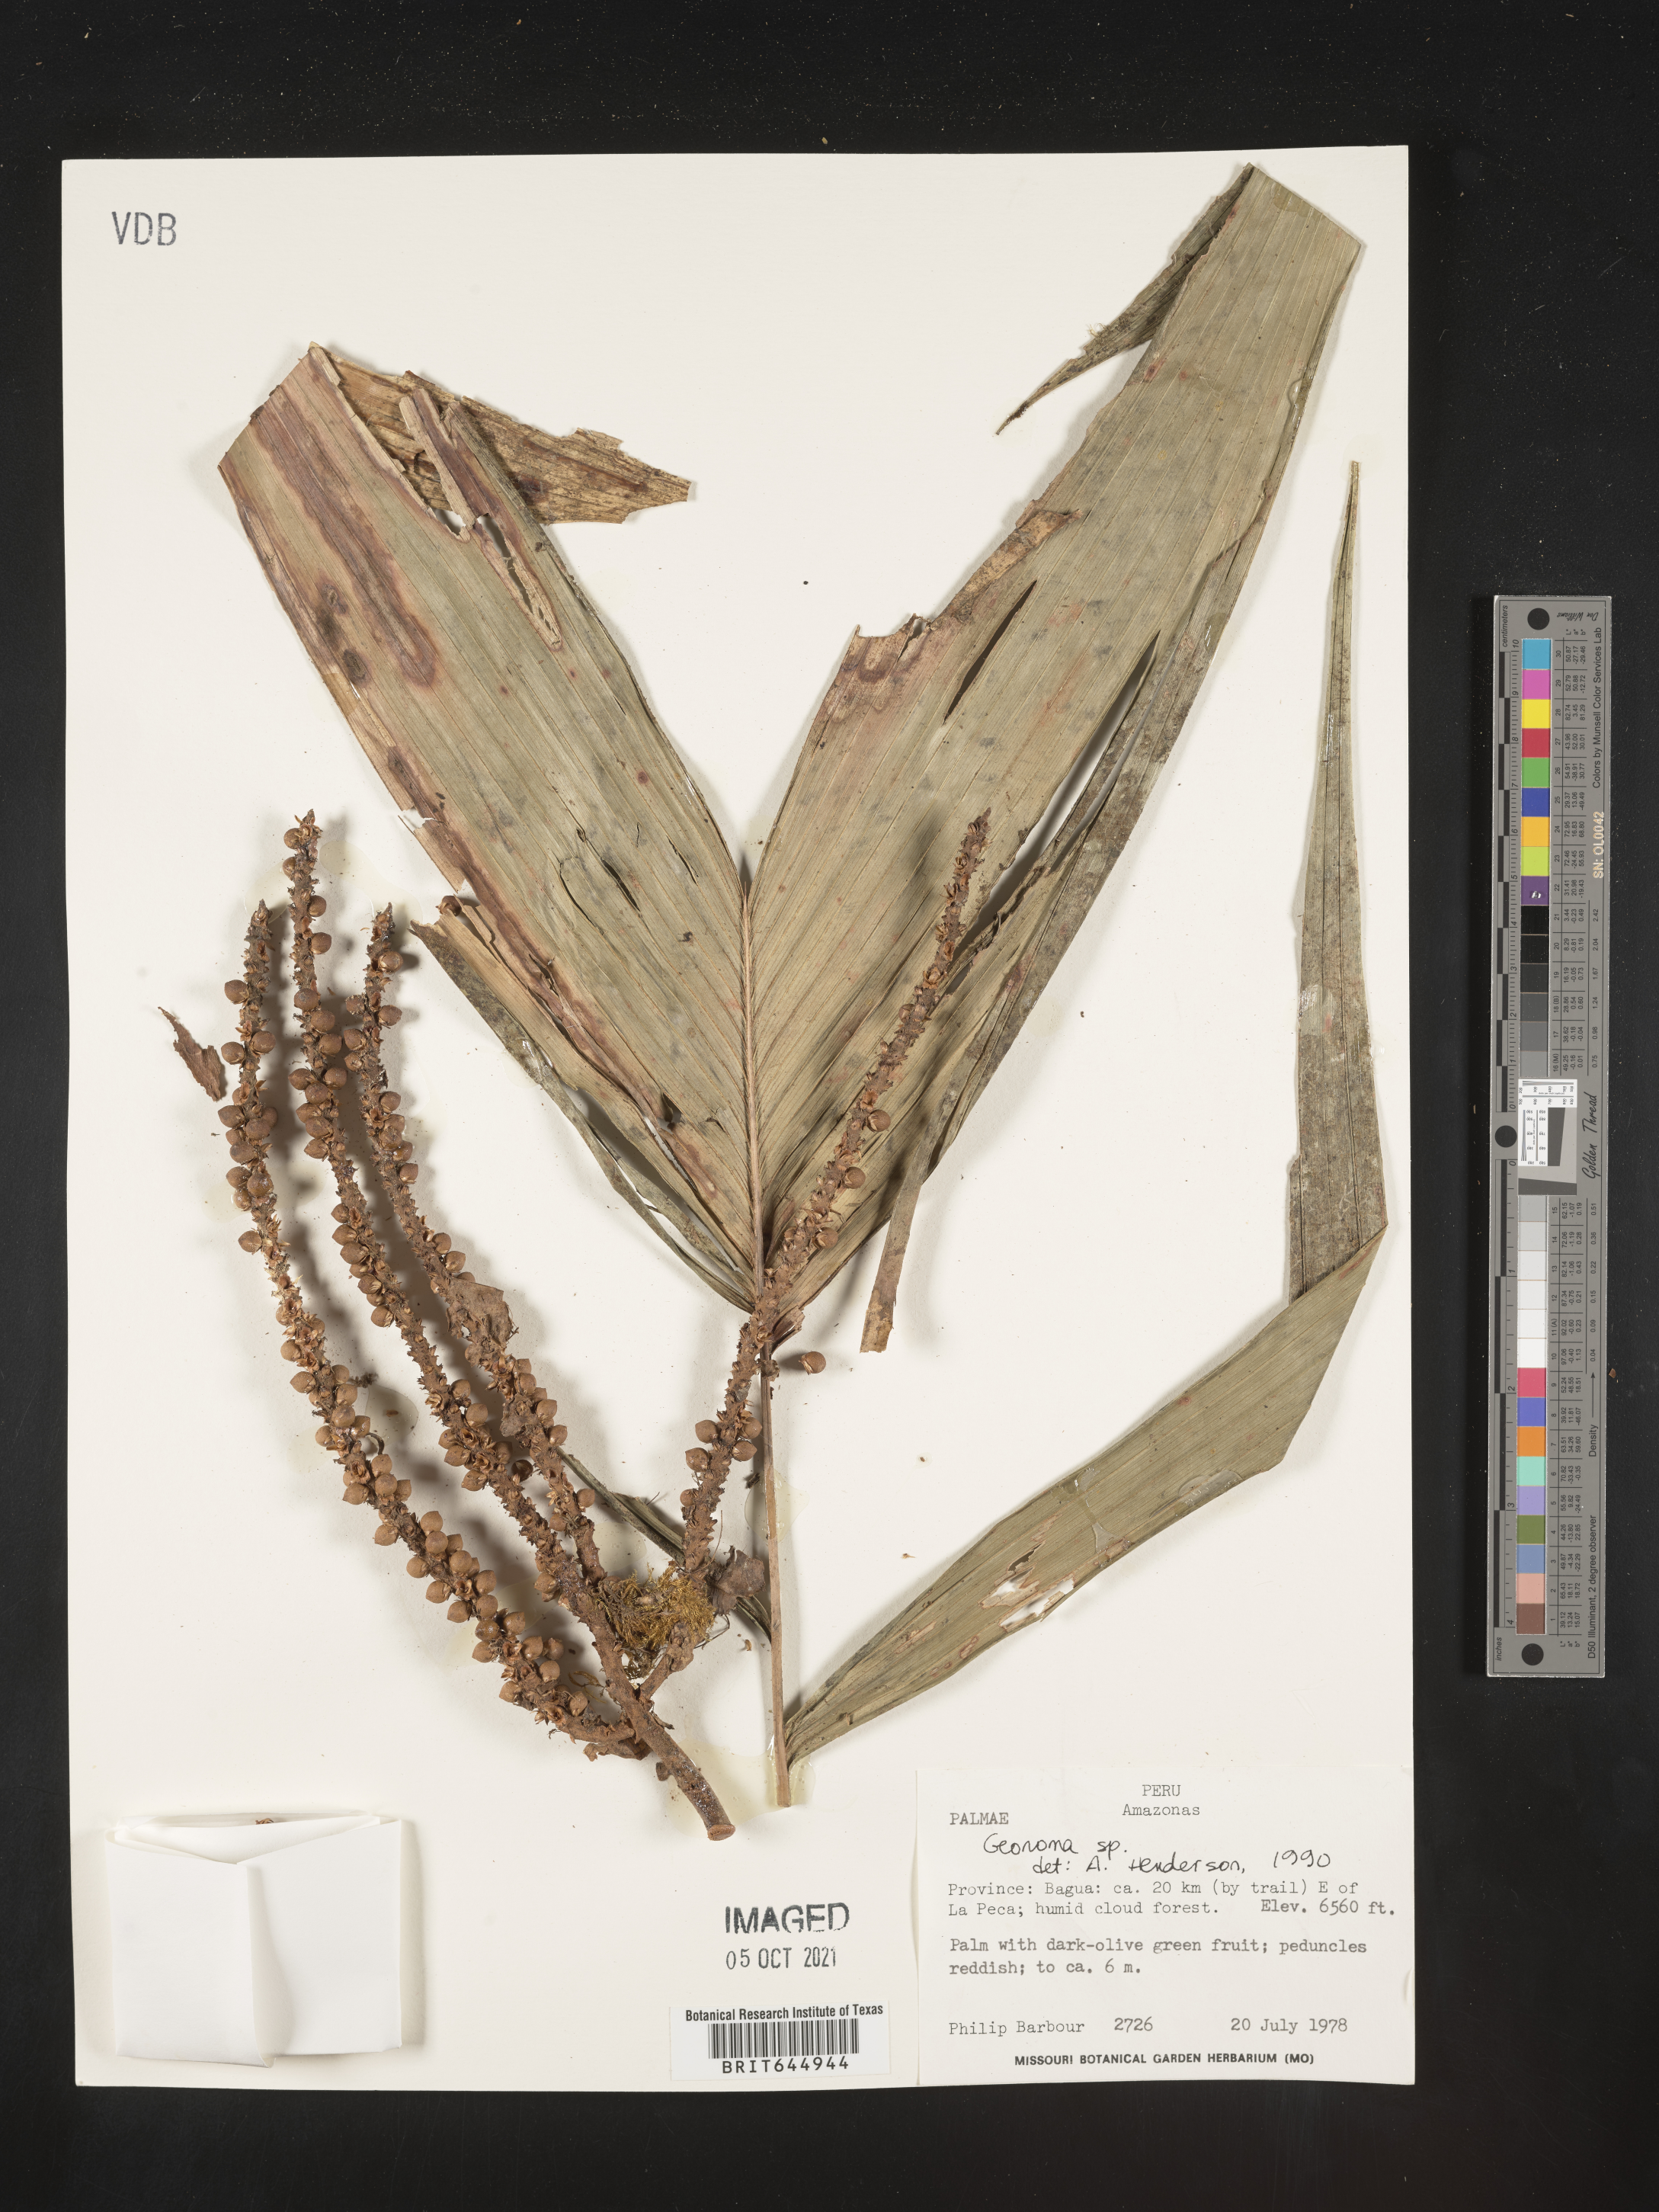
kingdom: Plantae
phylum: Tracheophyta
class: Liliopsida
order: Arecales
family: Arecaceae
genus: Geonoma
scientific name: Geonoma
